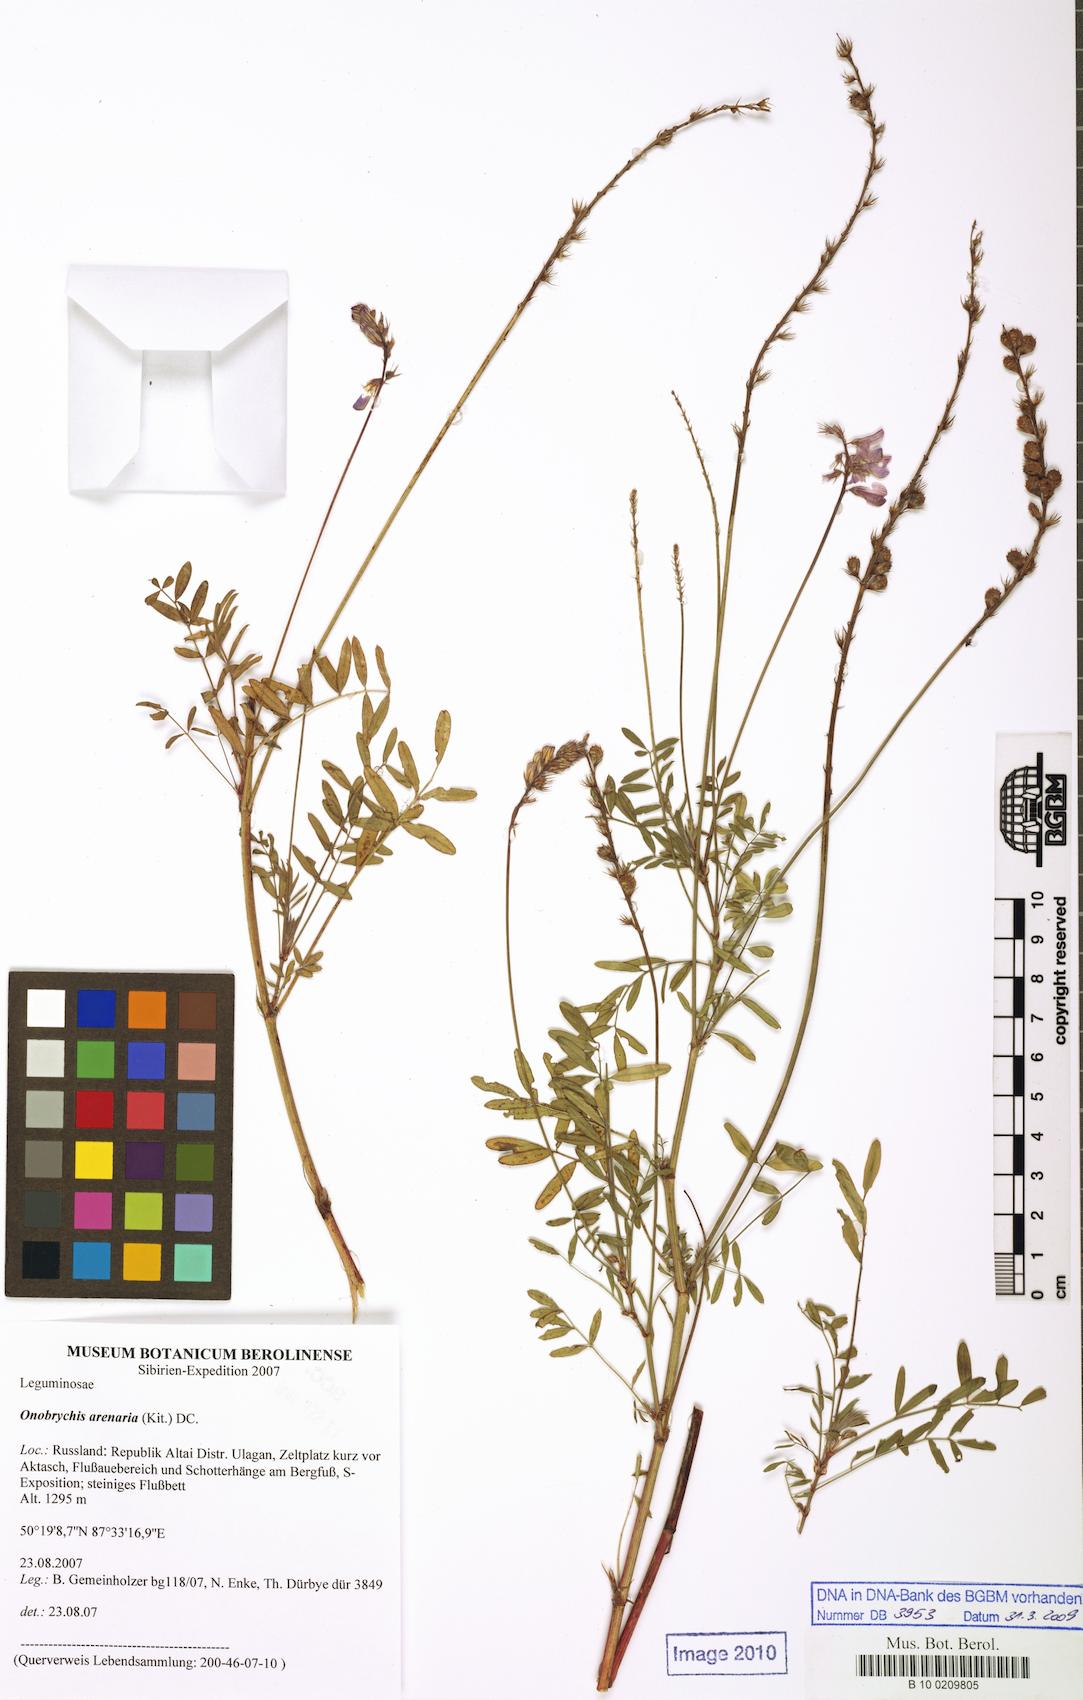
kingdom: Plantae
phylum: Tracheophyta
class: Magnoliopsida
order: Fabales
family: Fabaceae
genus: Onobrychis
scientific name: Onobrychis arenaria
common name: Sand esparcet
